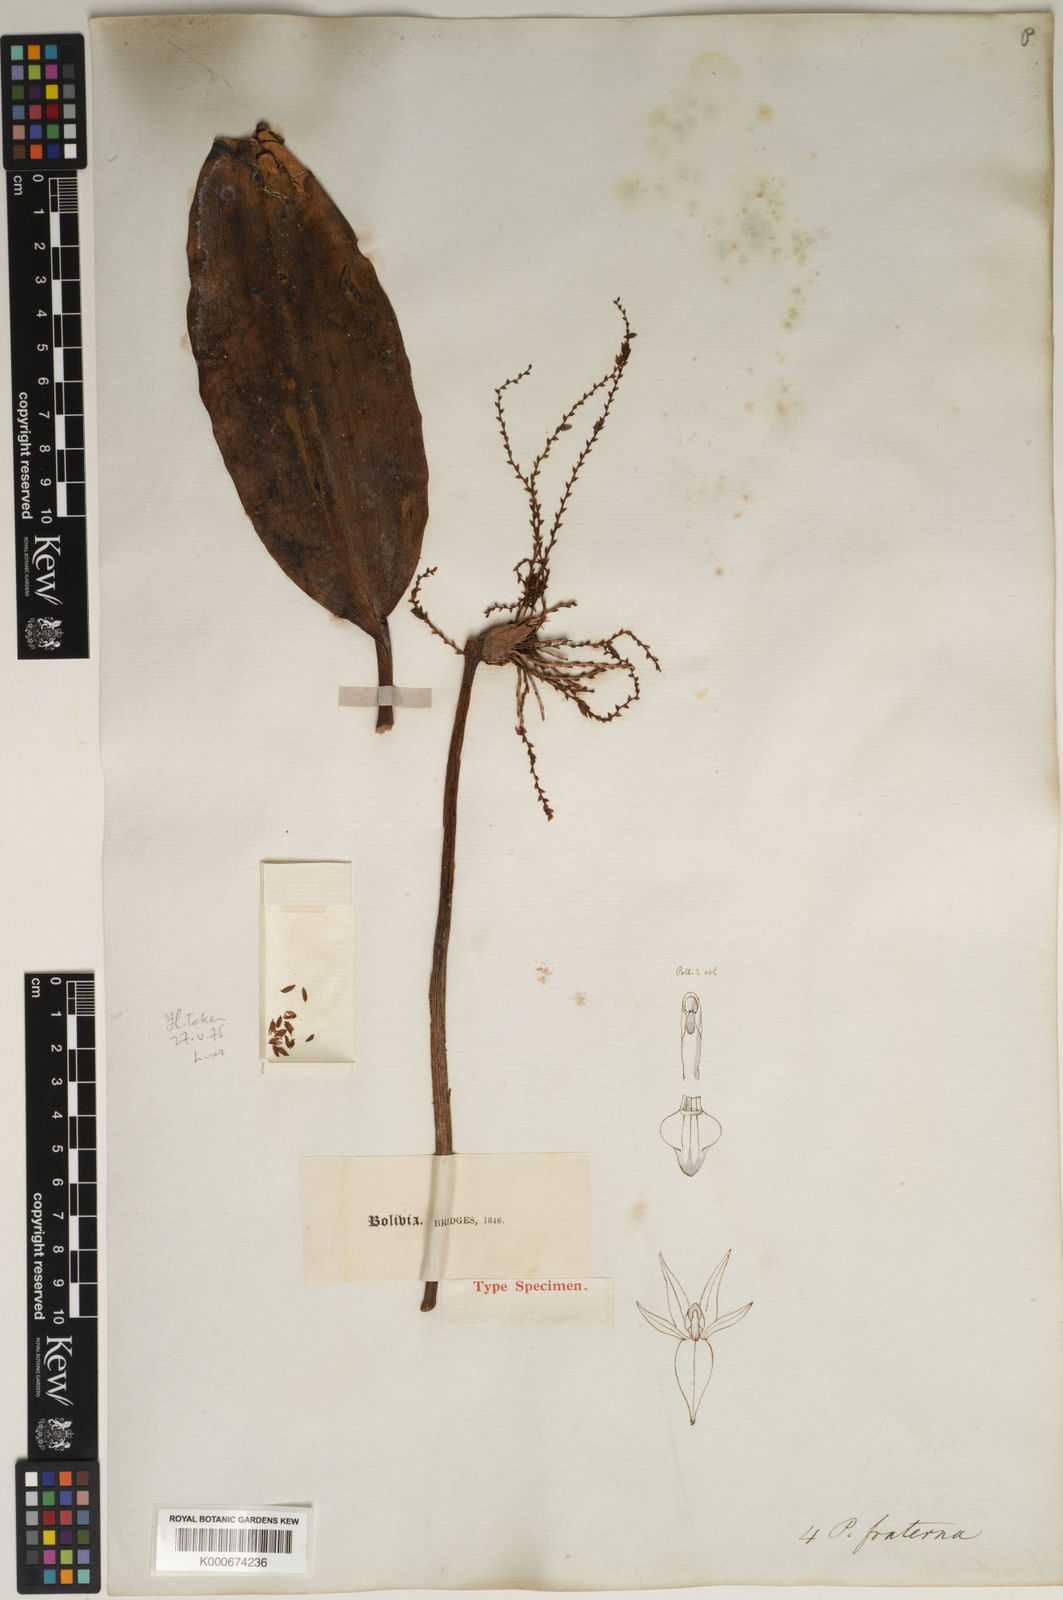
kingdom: Plantae
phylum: Tracheophyta
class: Liliopsida
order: Asparagales
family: Orchidaceae
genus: Stelis
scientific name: Stelis galeata
